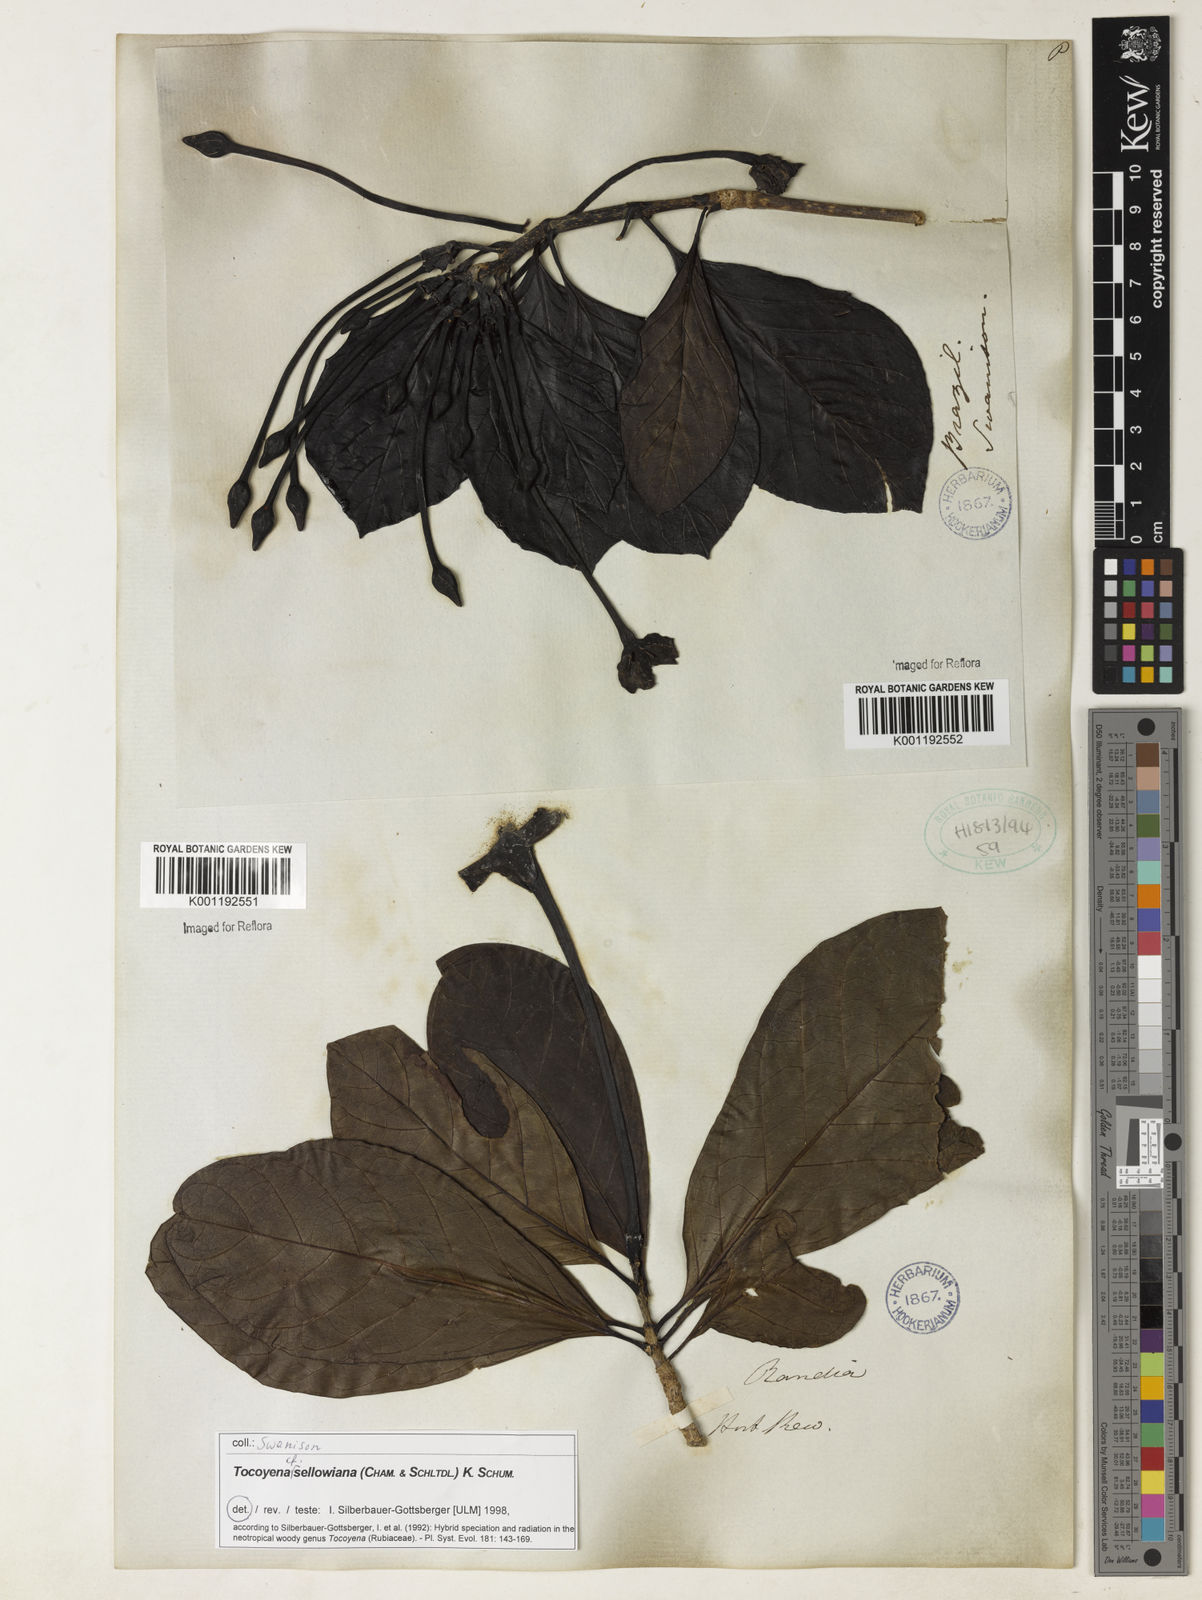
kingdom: Plantae
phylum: Tracheophyta
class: Magnoliopsida
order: Gentianales
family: Rubiaceae
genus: Tocoyena
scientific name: Tocoyena sellowiana
